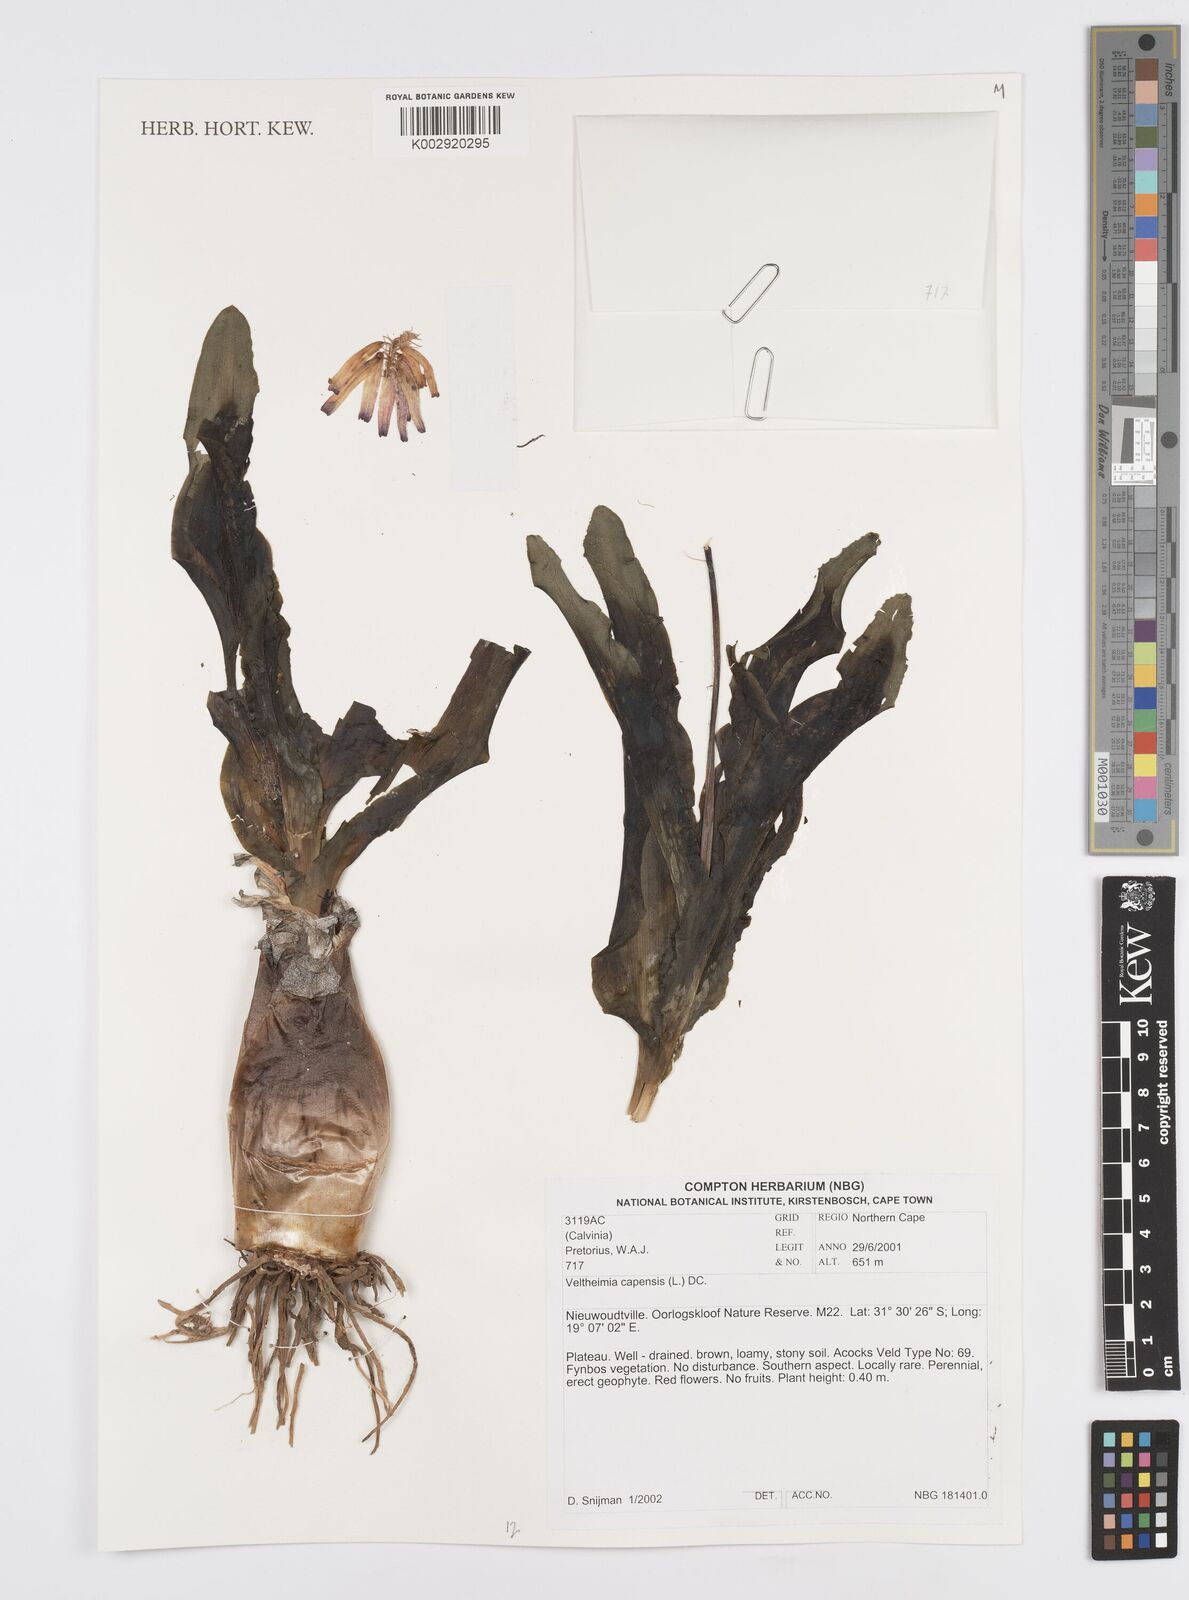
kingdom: Plantae
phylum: Tracheophyta
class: Liliopsida
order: Asparagales
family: Asparagaceae
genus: Veltheimia
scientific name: Veltheimia capensis
